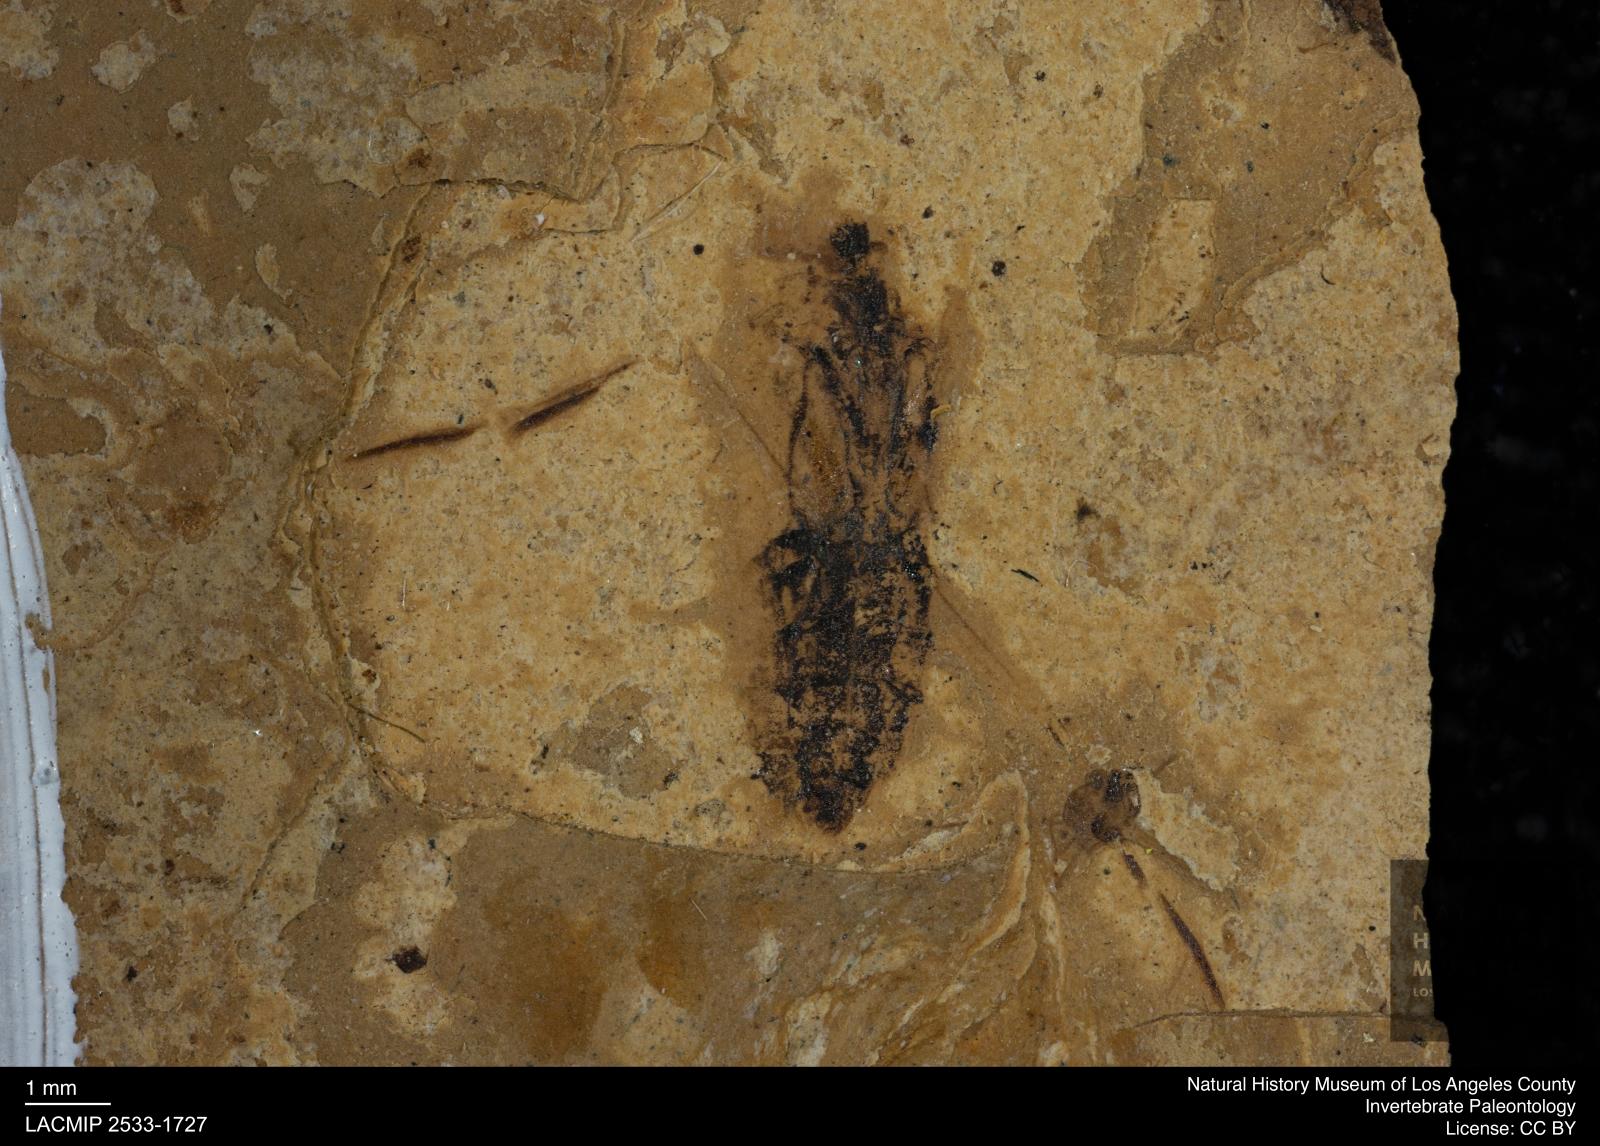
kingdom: Animalia
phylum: Arthropoda
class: Insecta
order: Hemiptera
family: Notonectidae
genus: Notonecta
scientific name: Notonecta
